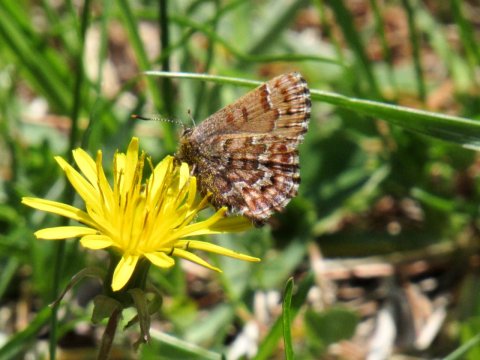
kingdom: Animalia
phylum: Arthropoda
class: Insecta
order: Lepidoptera
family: Lycaenidae
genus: Incisalia
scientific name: Incisalia niphon
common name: Eastern Pine Elfin
